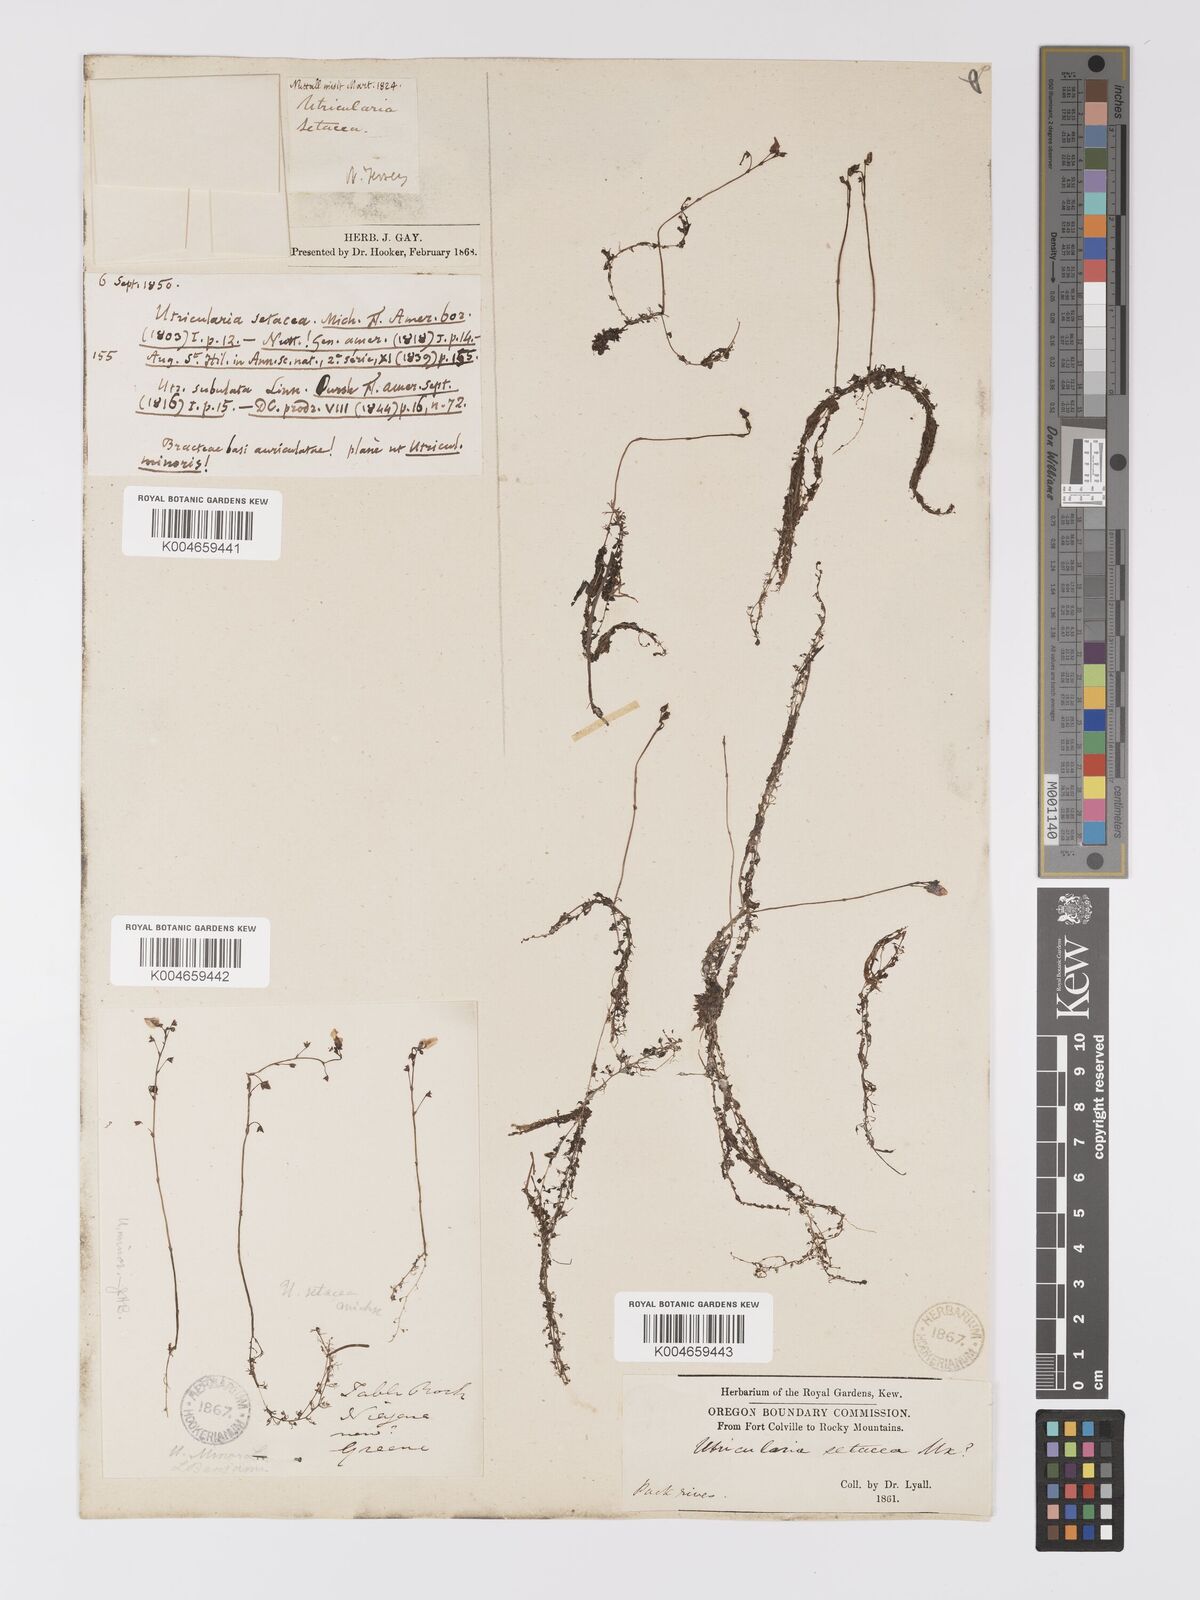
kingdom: Plantae
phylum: Tracheophyta
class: Magnoliopsida
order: Lamiales
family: Lentibulariaceae
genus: Utricularia
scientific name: Utricularia minor
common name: Lesser bladderwort
